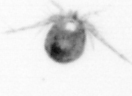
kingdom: Animalia
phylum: Arthropoda
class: Copepoda
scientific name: Copepoda
